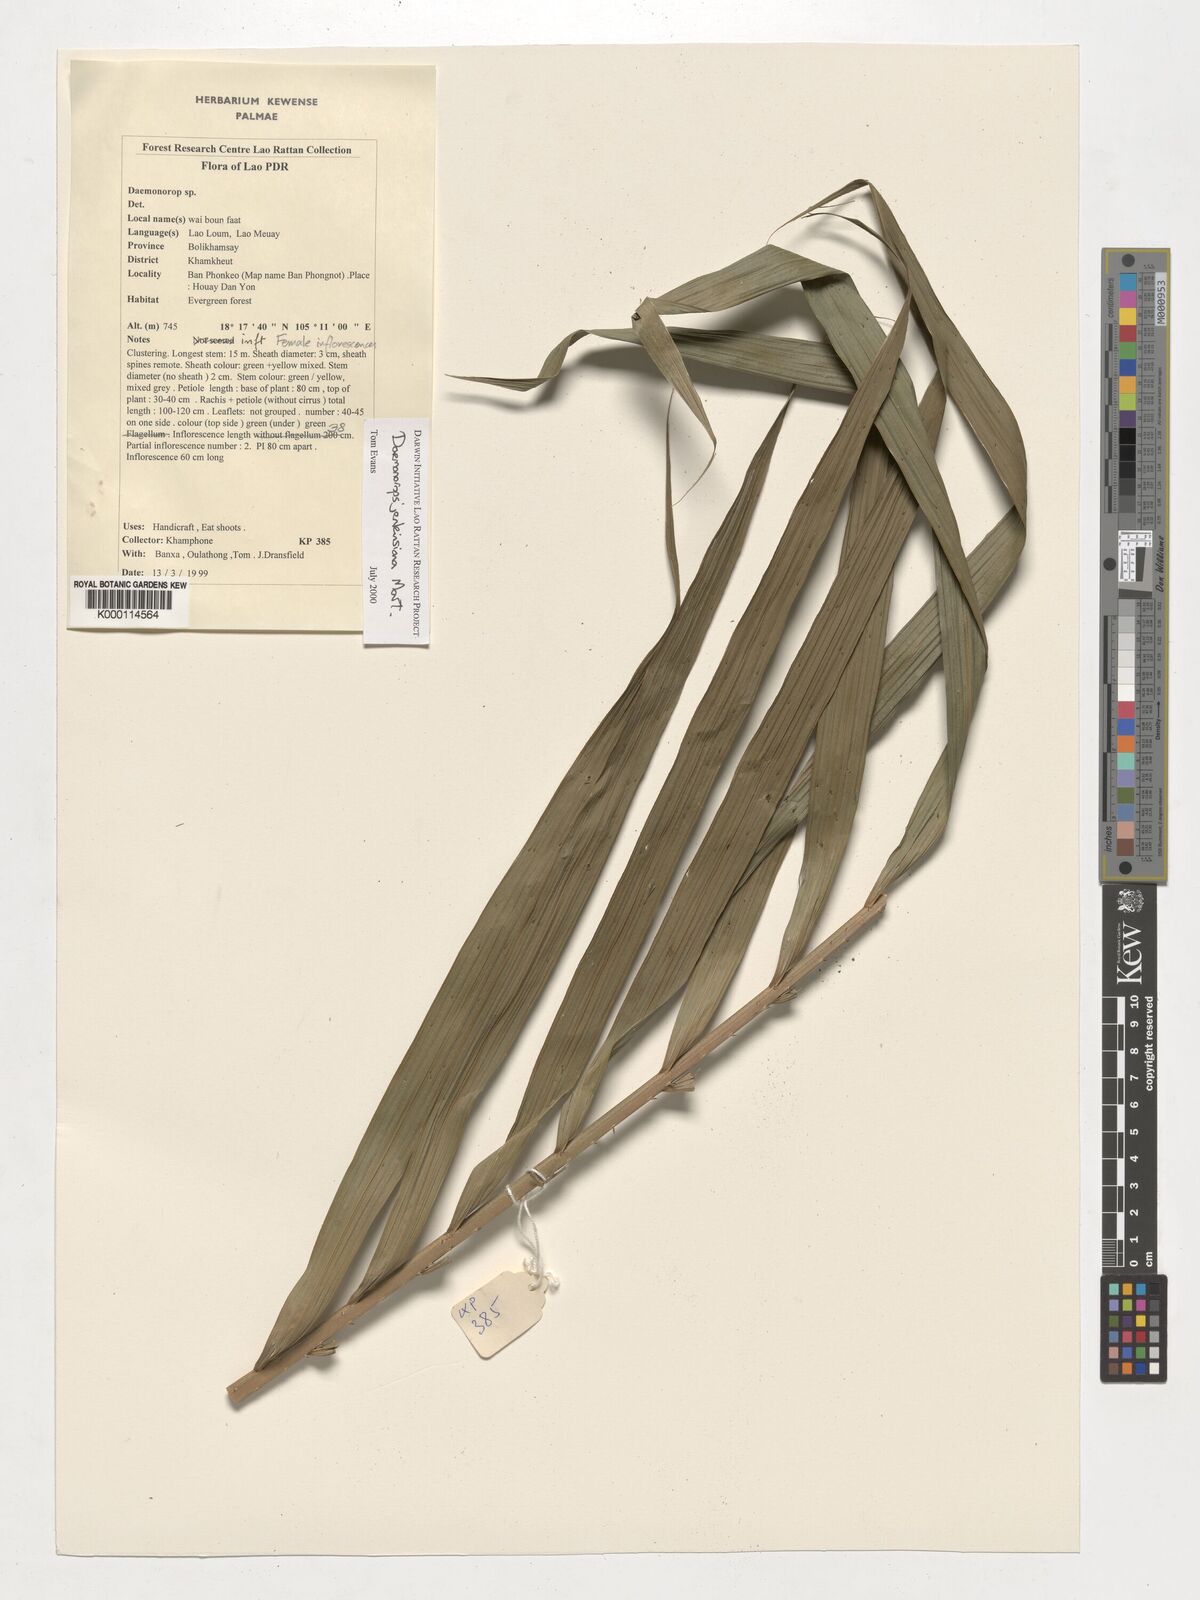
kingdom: Plantae
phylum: Tracheophyta
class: Liliopsida
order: Arecales
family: Arecaceae
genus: Calamus
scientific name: Calamus melanochaetes
